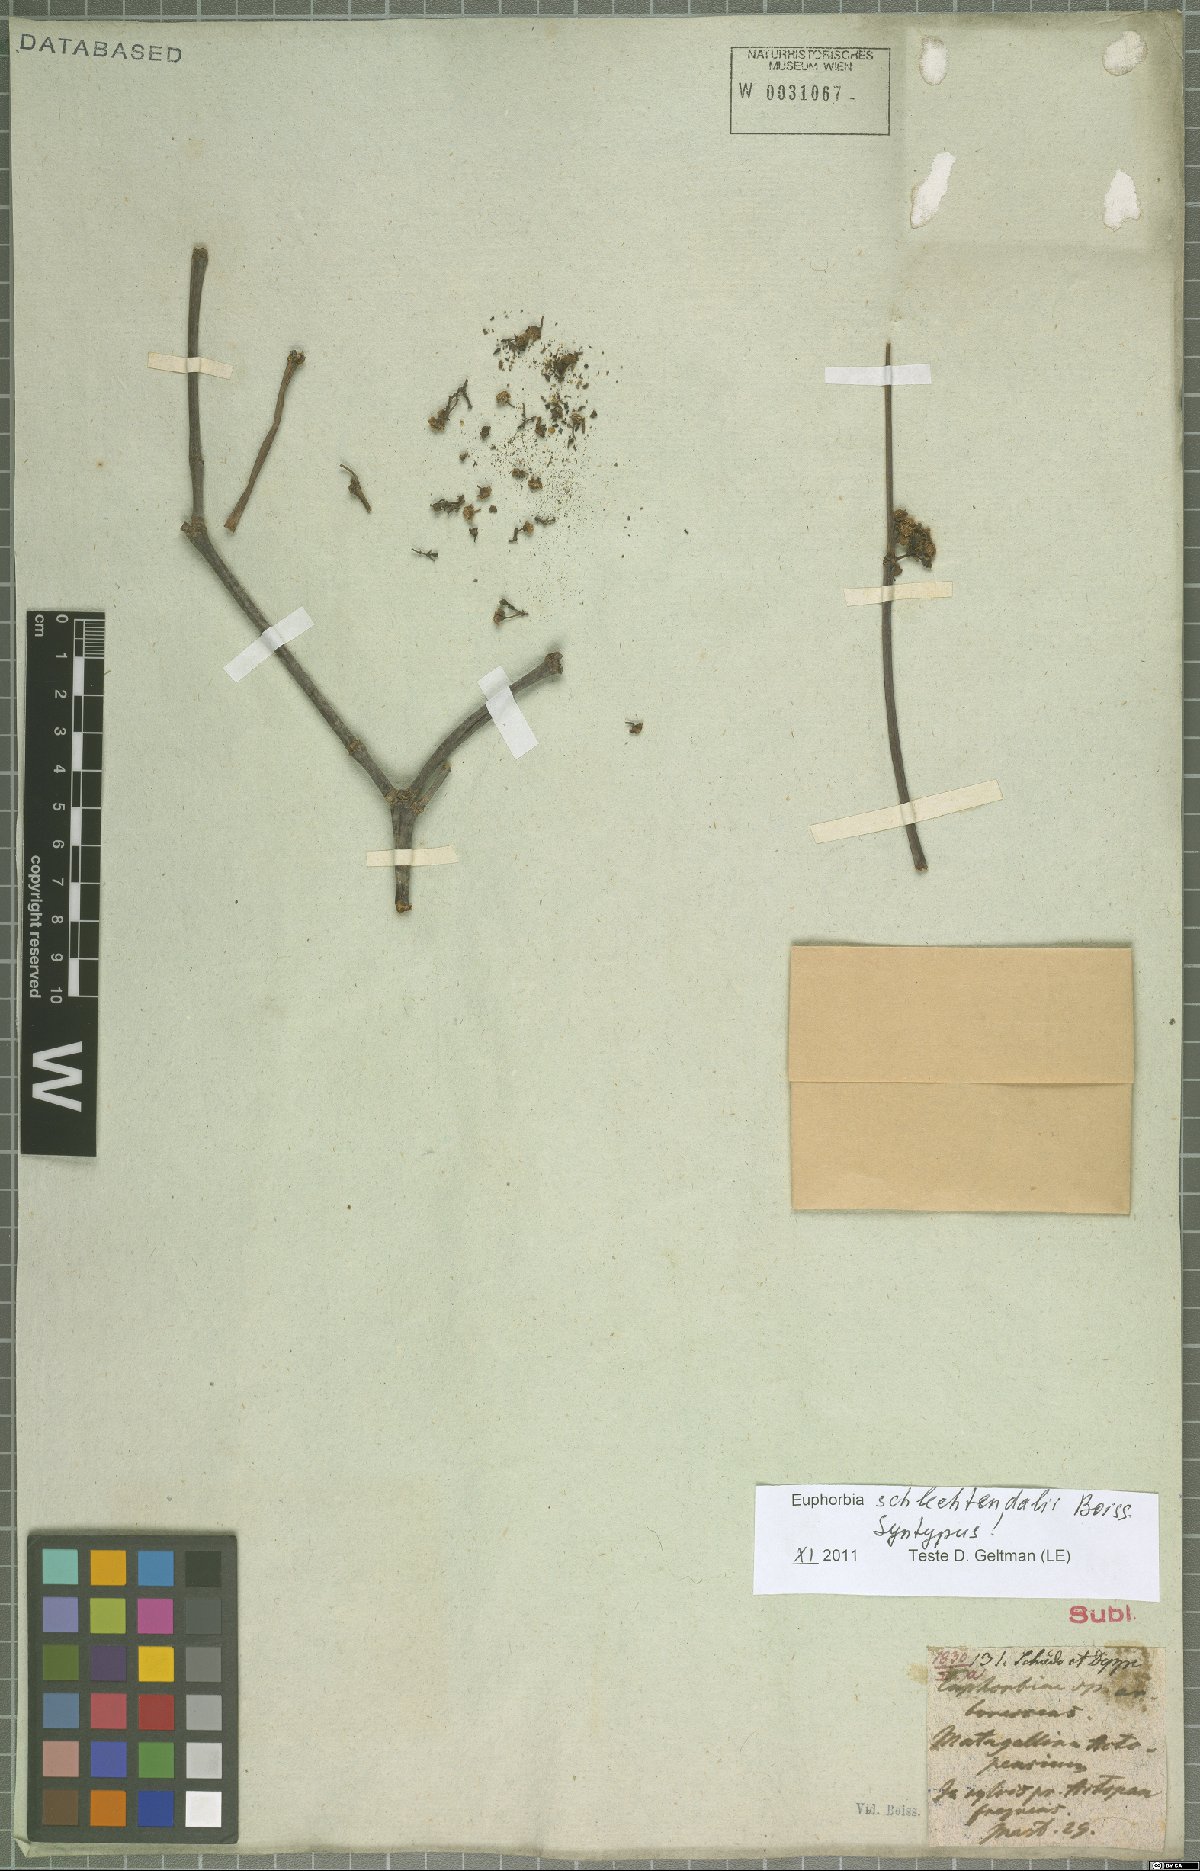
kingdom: Plantae
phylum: Tracheophyta
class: Magnoliopsida
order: Malpighiales
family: Euphorbiaceae
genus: Euphorbia
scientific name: Euphorbia schlechtendalii
